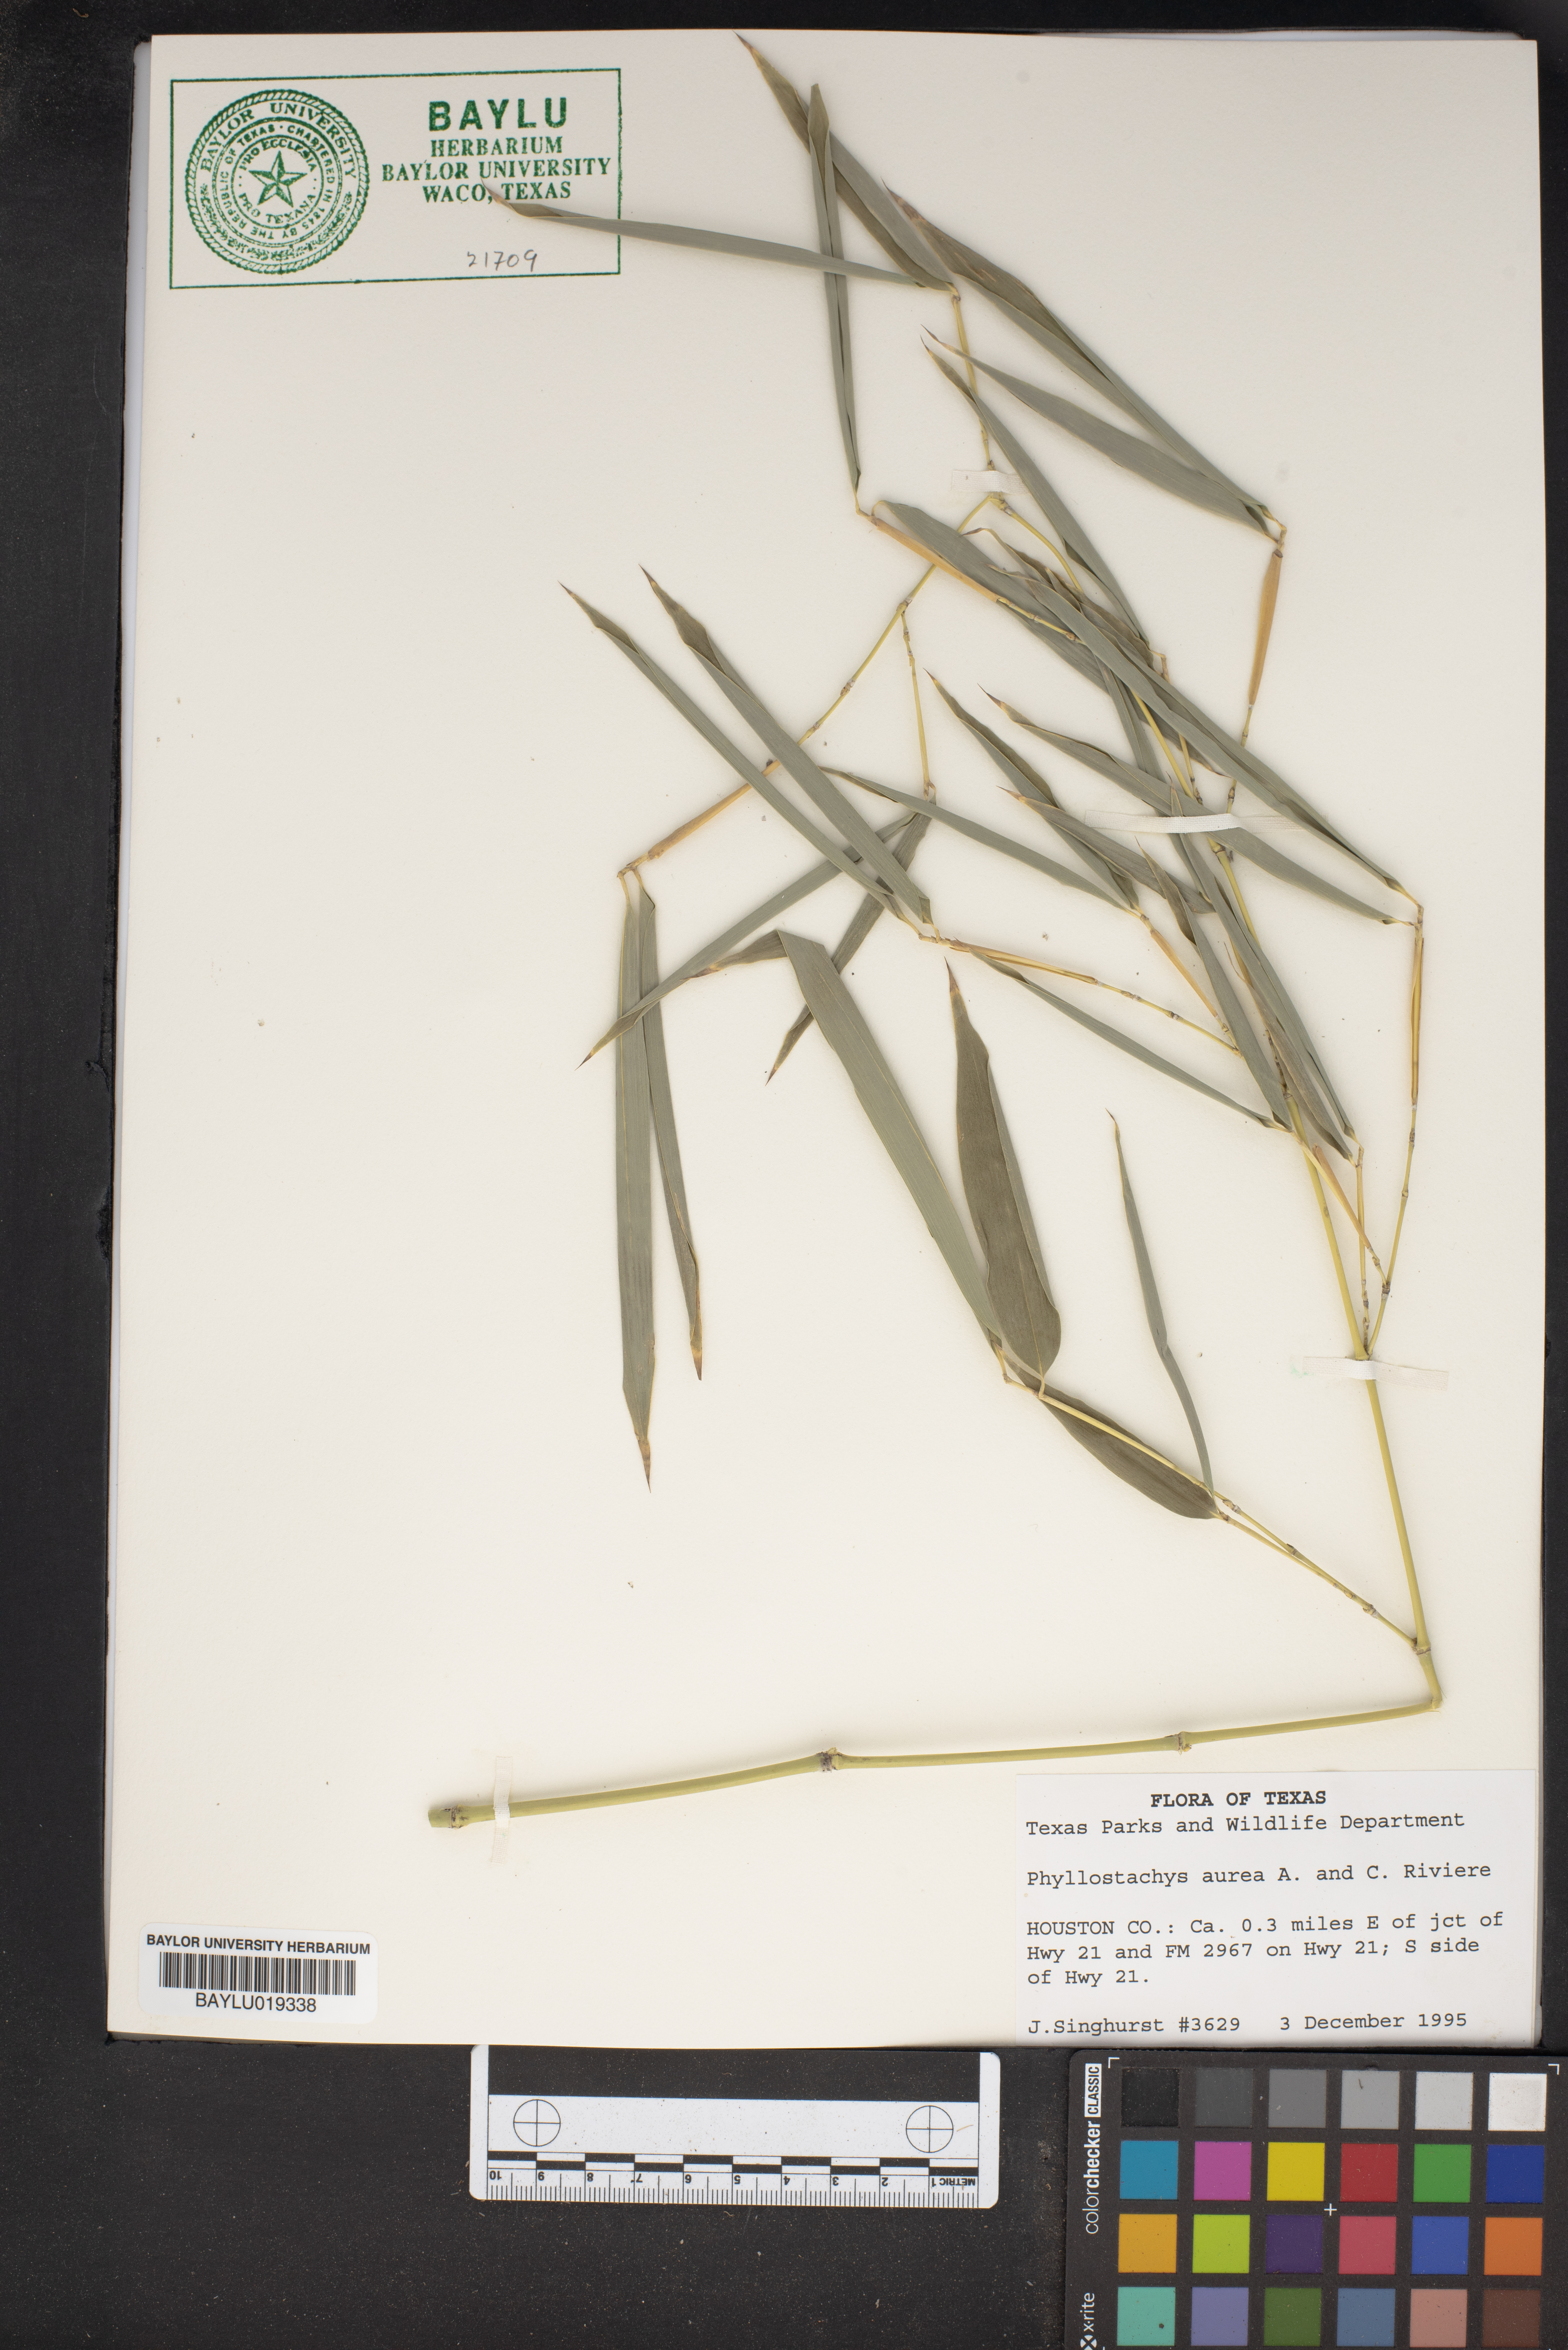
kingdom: Plantae
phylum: Tracheophyta
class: Liliopsida
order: Poales
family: Poaceae
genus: Phyllostachys
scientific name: Phyllostachys aurea
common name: Golden bamboo
